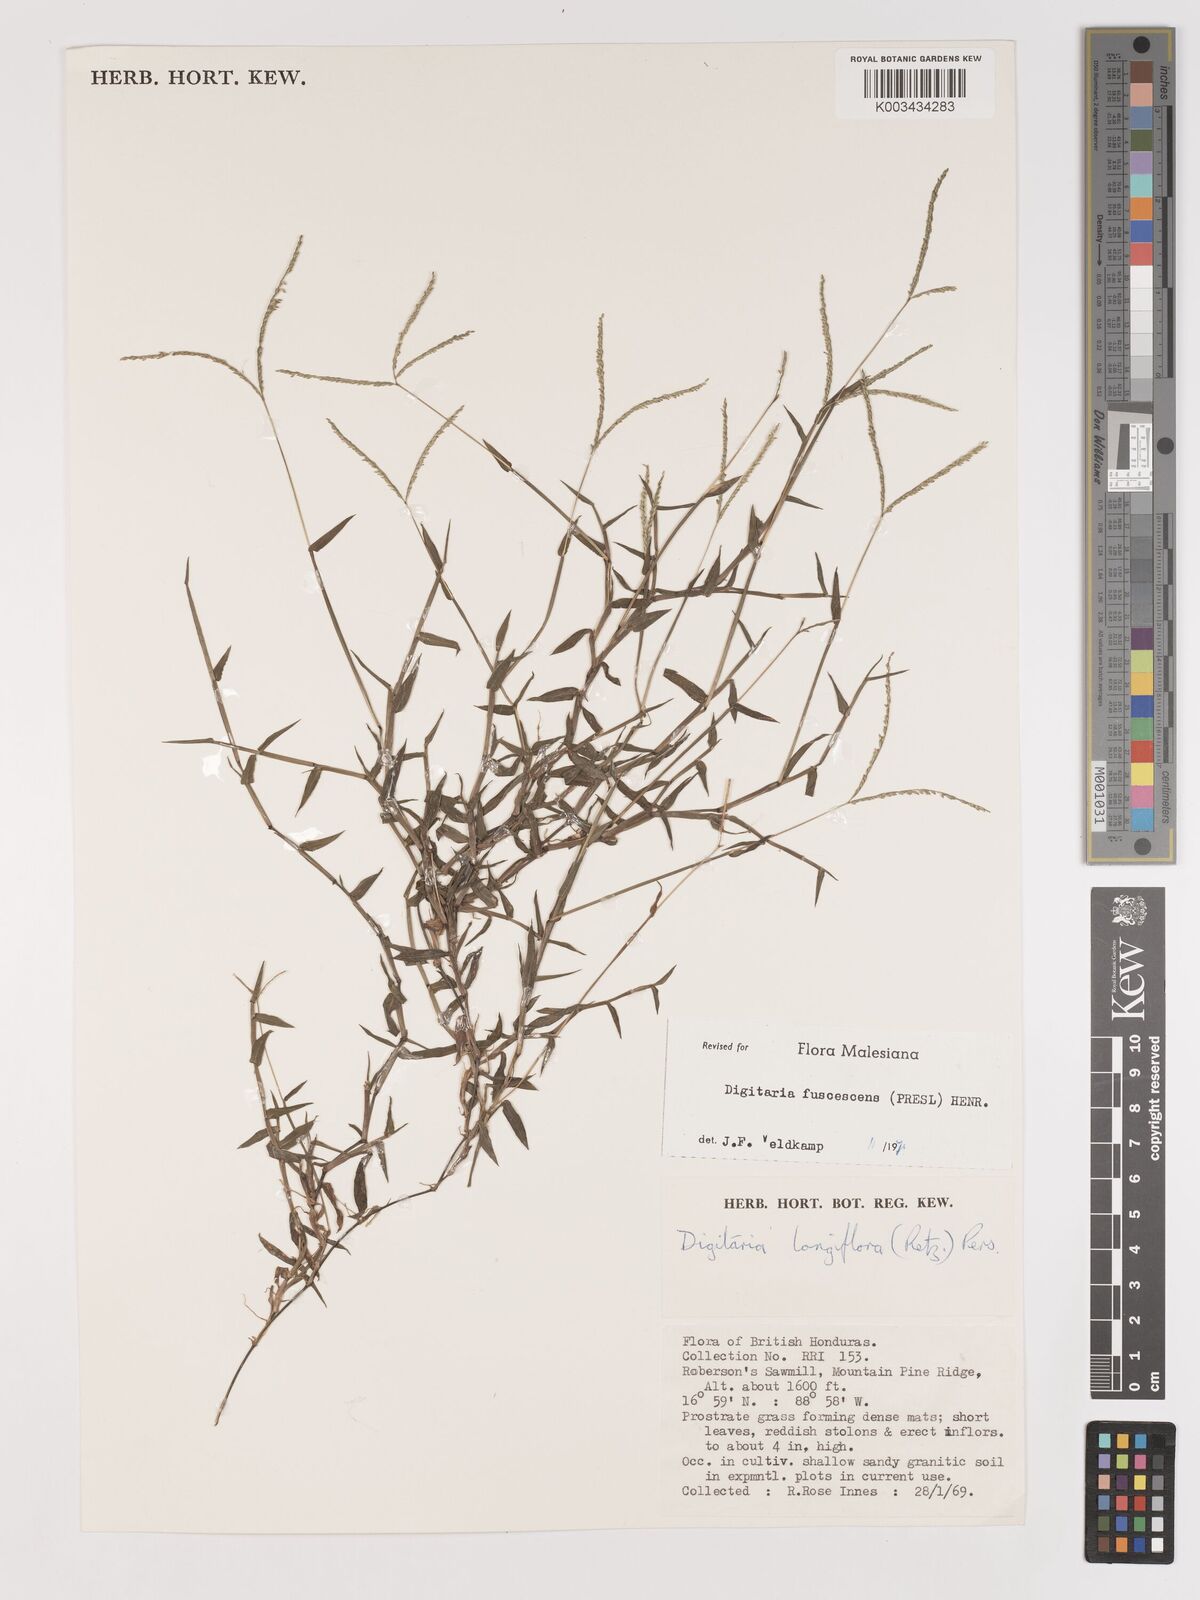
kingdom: Plantae
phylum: Tracheophyta
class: Liliopsida
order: Poales
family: Poaceae
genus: Digitaria
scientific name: Digitaria fuscescens
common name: Yellow crabgrass
